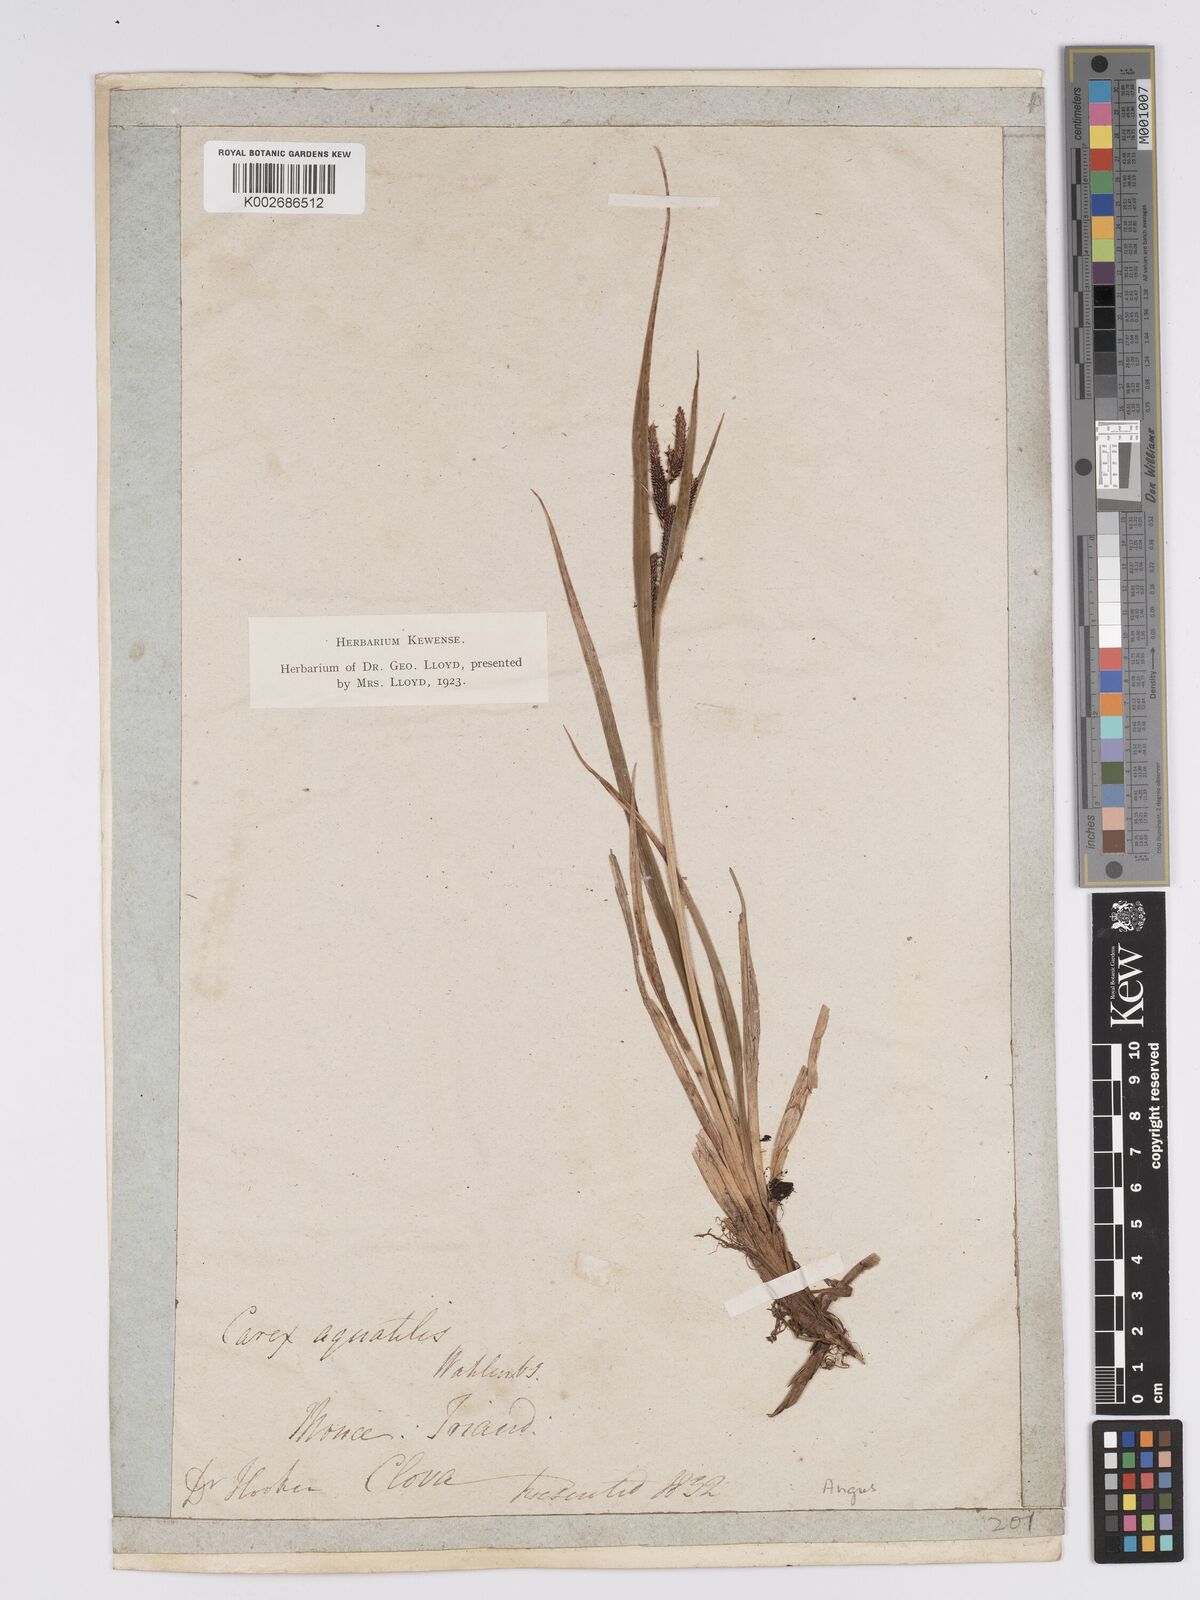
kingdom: Plantae
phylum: Tracheophyta
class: Liliopsida
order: Poales
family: Cyperaceae
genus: Carex
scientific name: Carex aquatilis
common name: Water sedge
